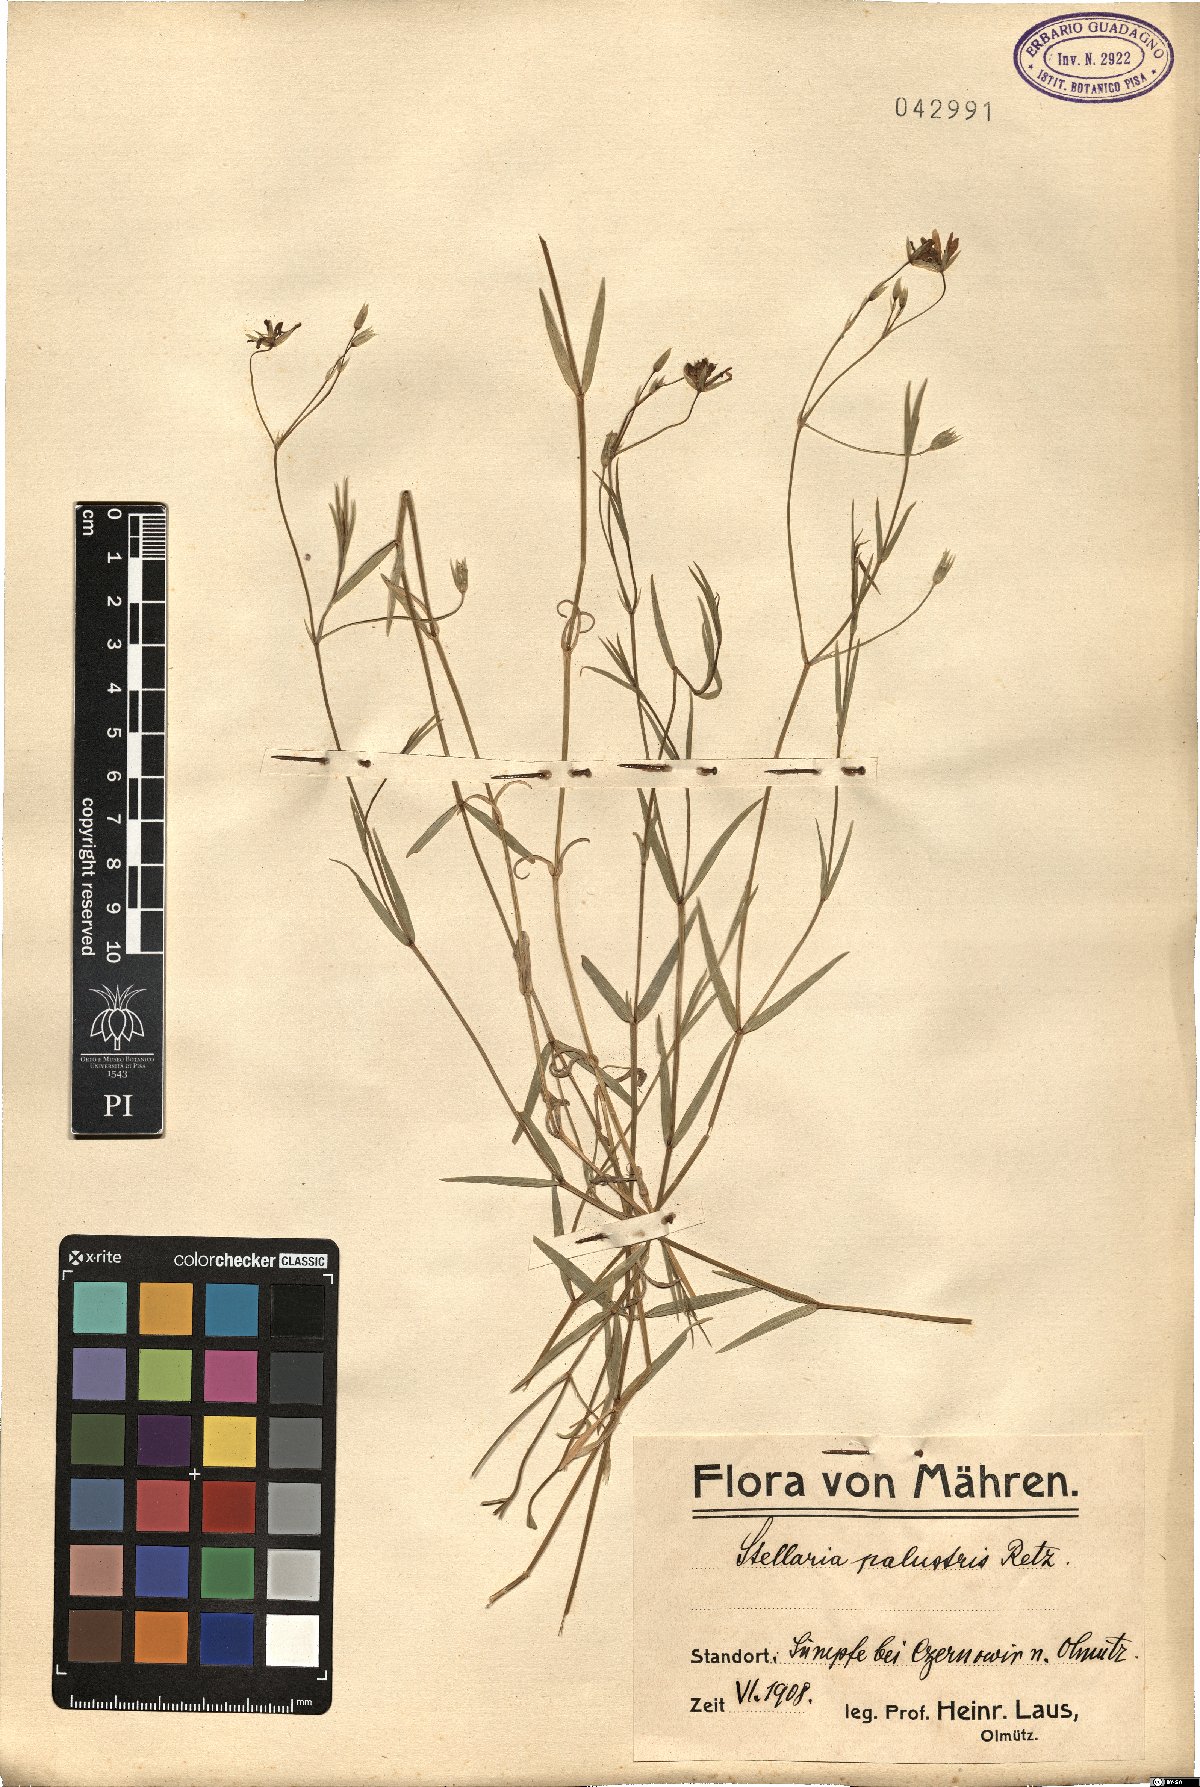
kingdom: Plantae
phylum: Tracheophyta
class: Magnoliopsida
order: Caryophyllales
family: Caryophyllaceae
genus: Stellaria
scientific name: Stellaria palustris
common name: Marsh stitchwort
